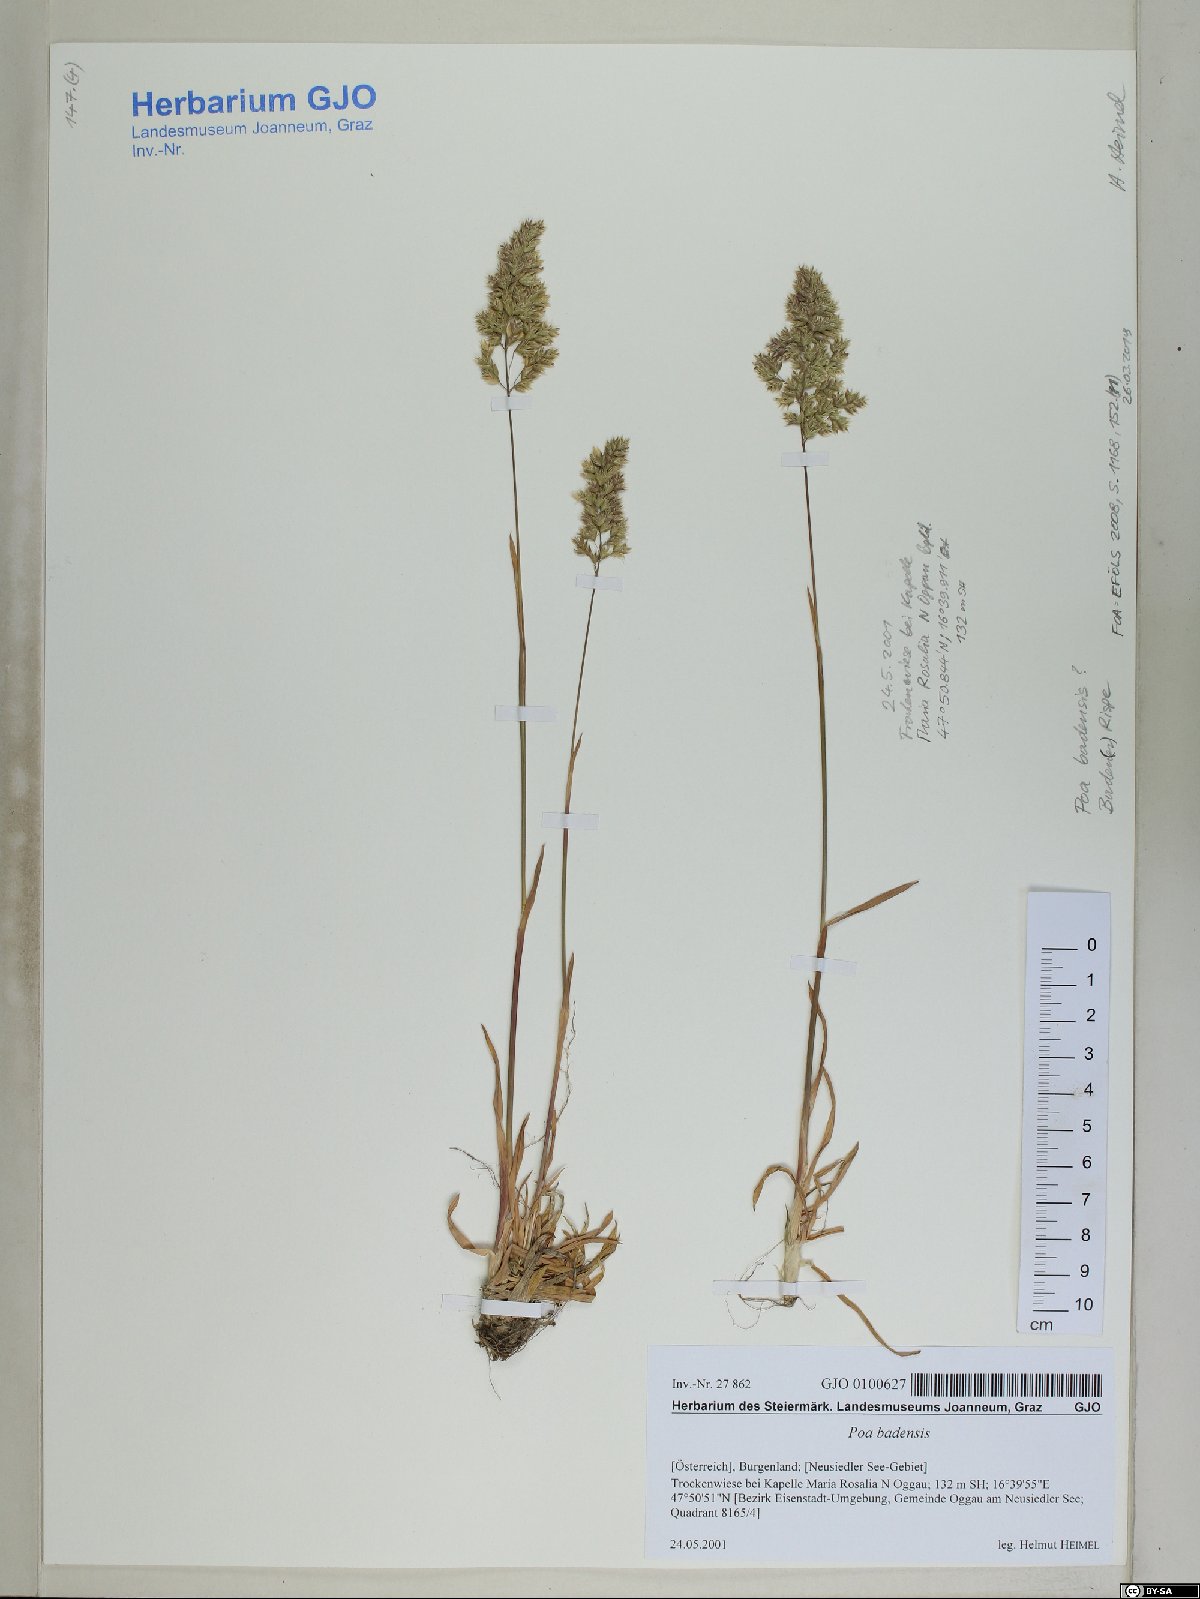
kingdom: Plantae
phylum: Tracheophyta
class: Liliopsida
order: Poales
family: Poaceae
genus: Poa
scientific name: Poa badensis
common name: Baden's bluegrass
